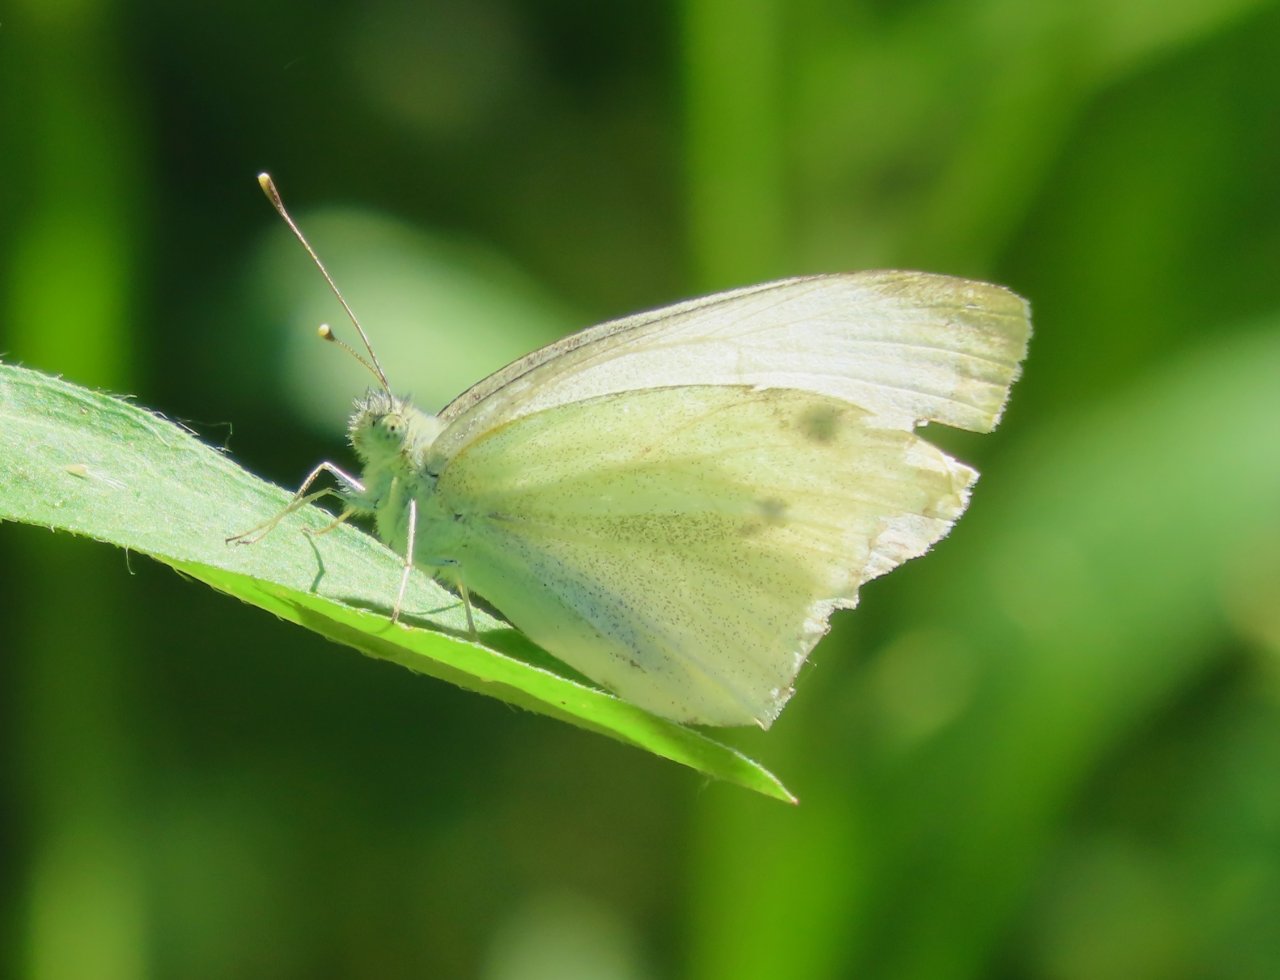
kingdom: Animalia
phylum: Arthropoda
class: Insecta
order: Lepidoptera
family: Pieridae
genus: Pieris
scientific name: Pieris rapae
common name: Cabbage White
